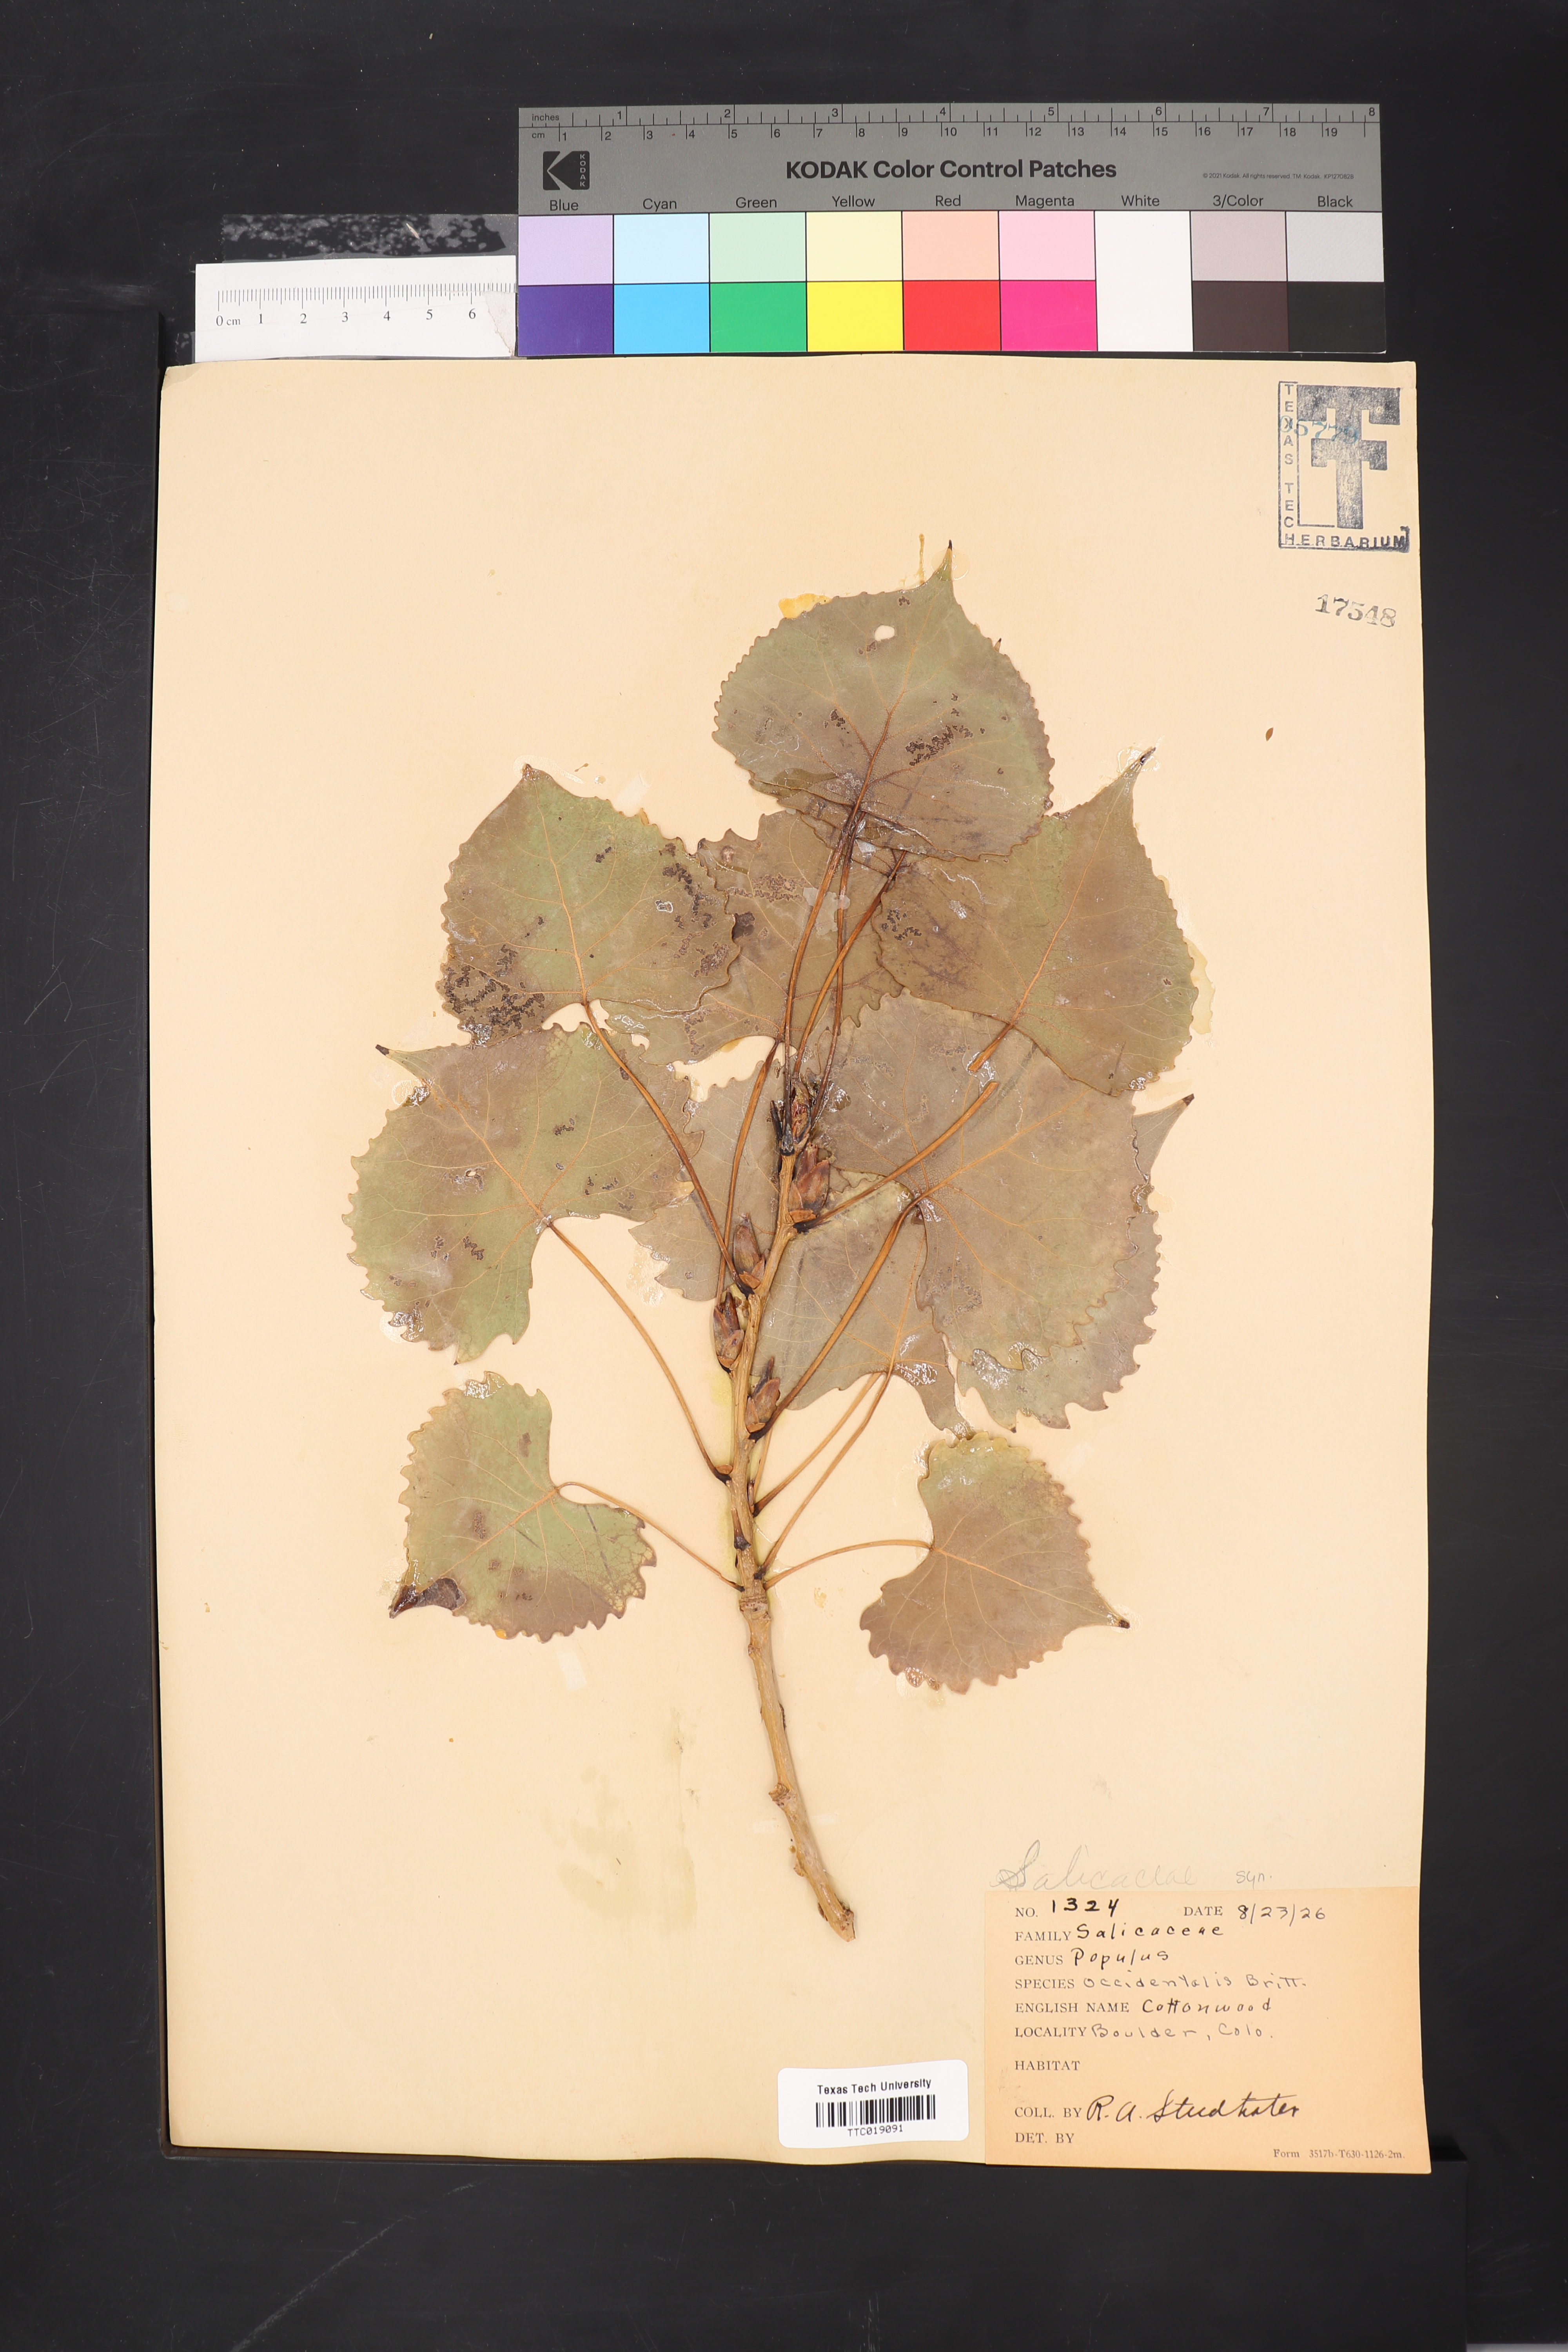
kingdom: Plantae
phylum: Tracheophyta
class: Magnoliopsida
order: Malpighiales
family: Salicaceae
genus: Populus
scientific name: Populus deltoides
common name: Eastern cottonwood
